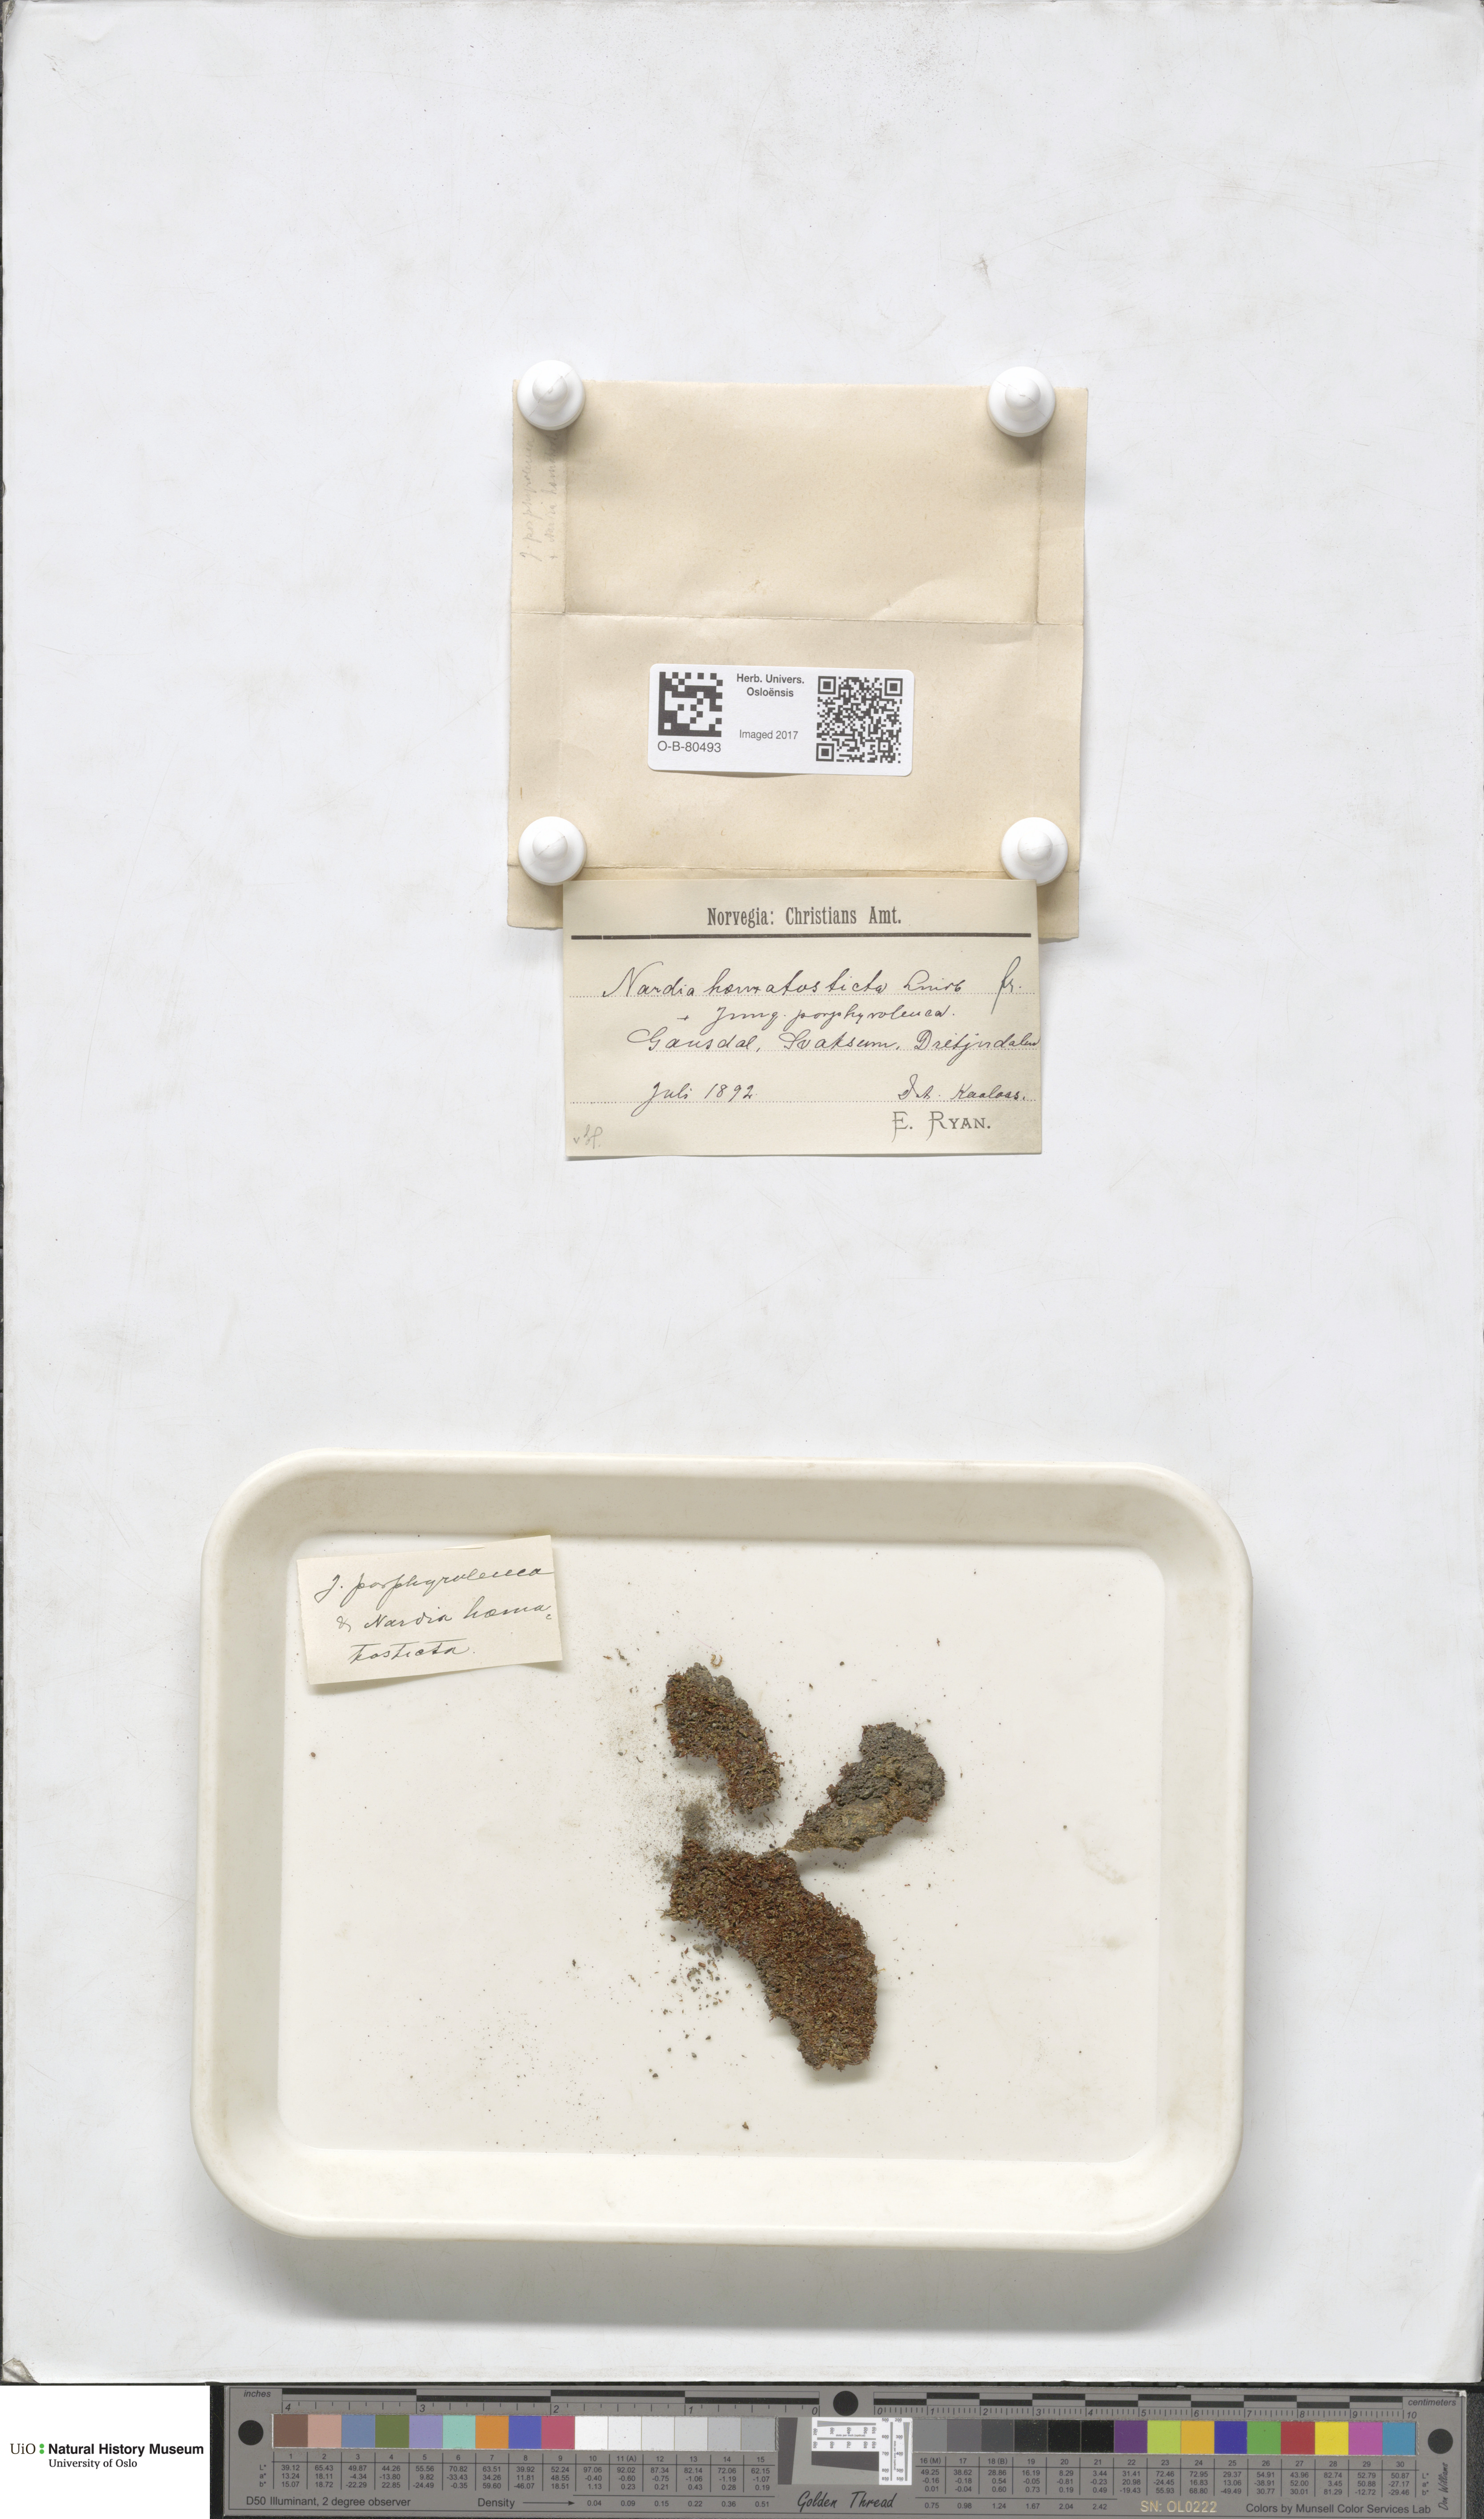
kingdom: Plantae
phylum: Marchantiophyta
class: Jungermanniopsida
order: Jungermanniales
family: Gymnomitriaceae
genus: Nardia
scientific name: Nardia geoscyphus
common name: Earth-cup flapwort
